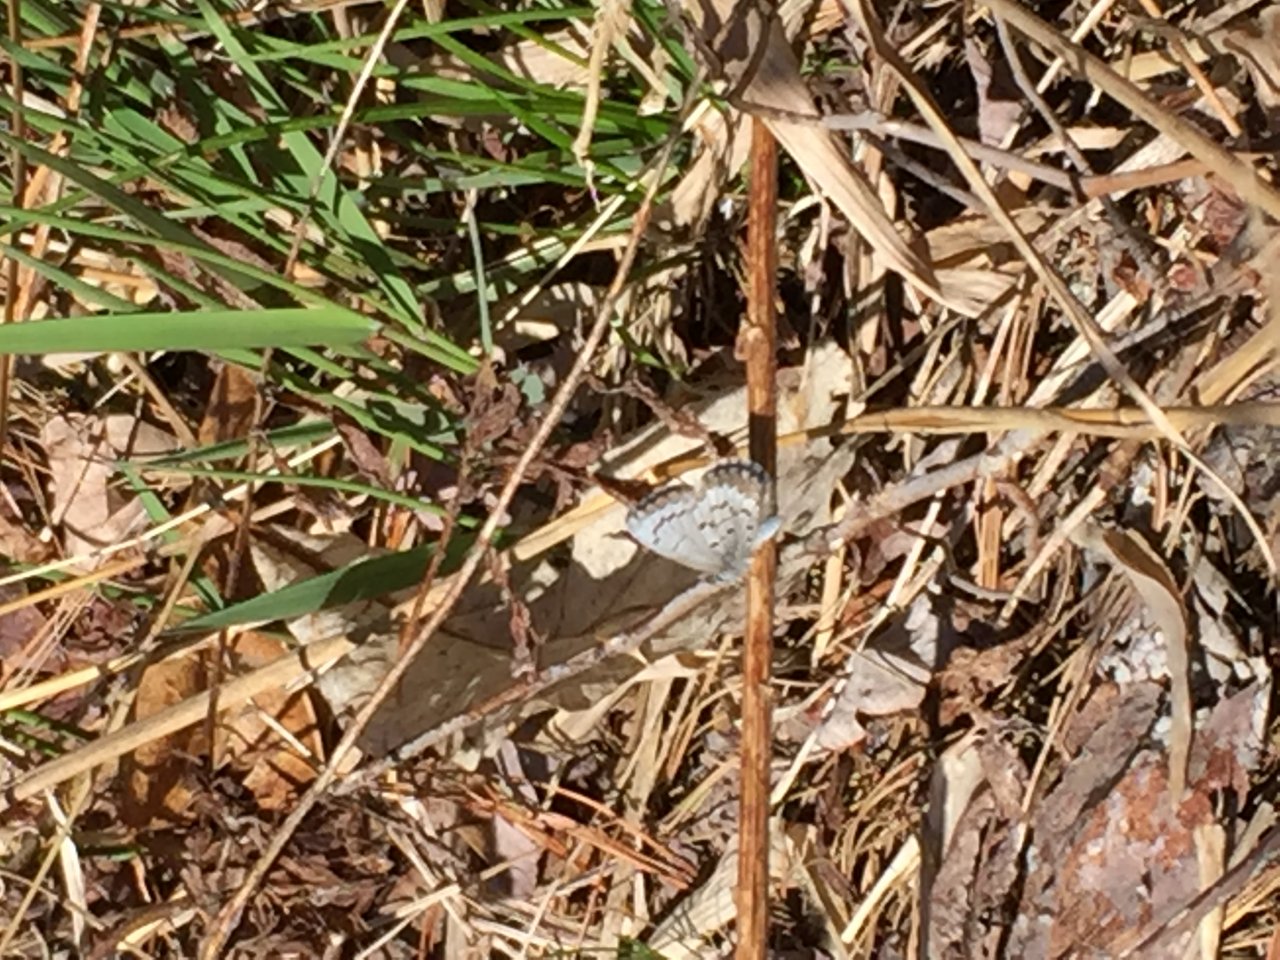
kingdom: Animalia
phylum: Arthropoda
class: Insecta
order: Lepidoptera
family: Lycaenidae
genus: Celastrina
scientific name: Celastrina ladon
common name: Spring Azure
